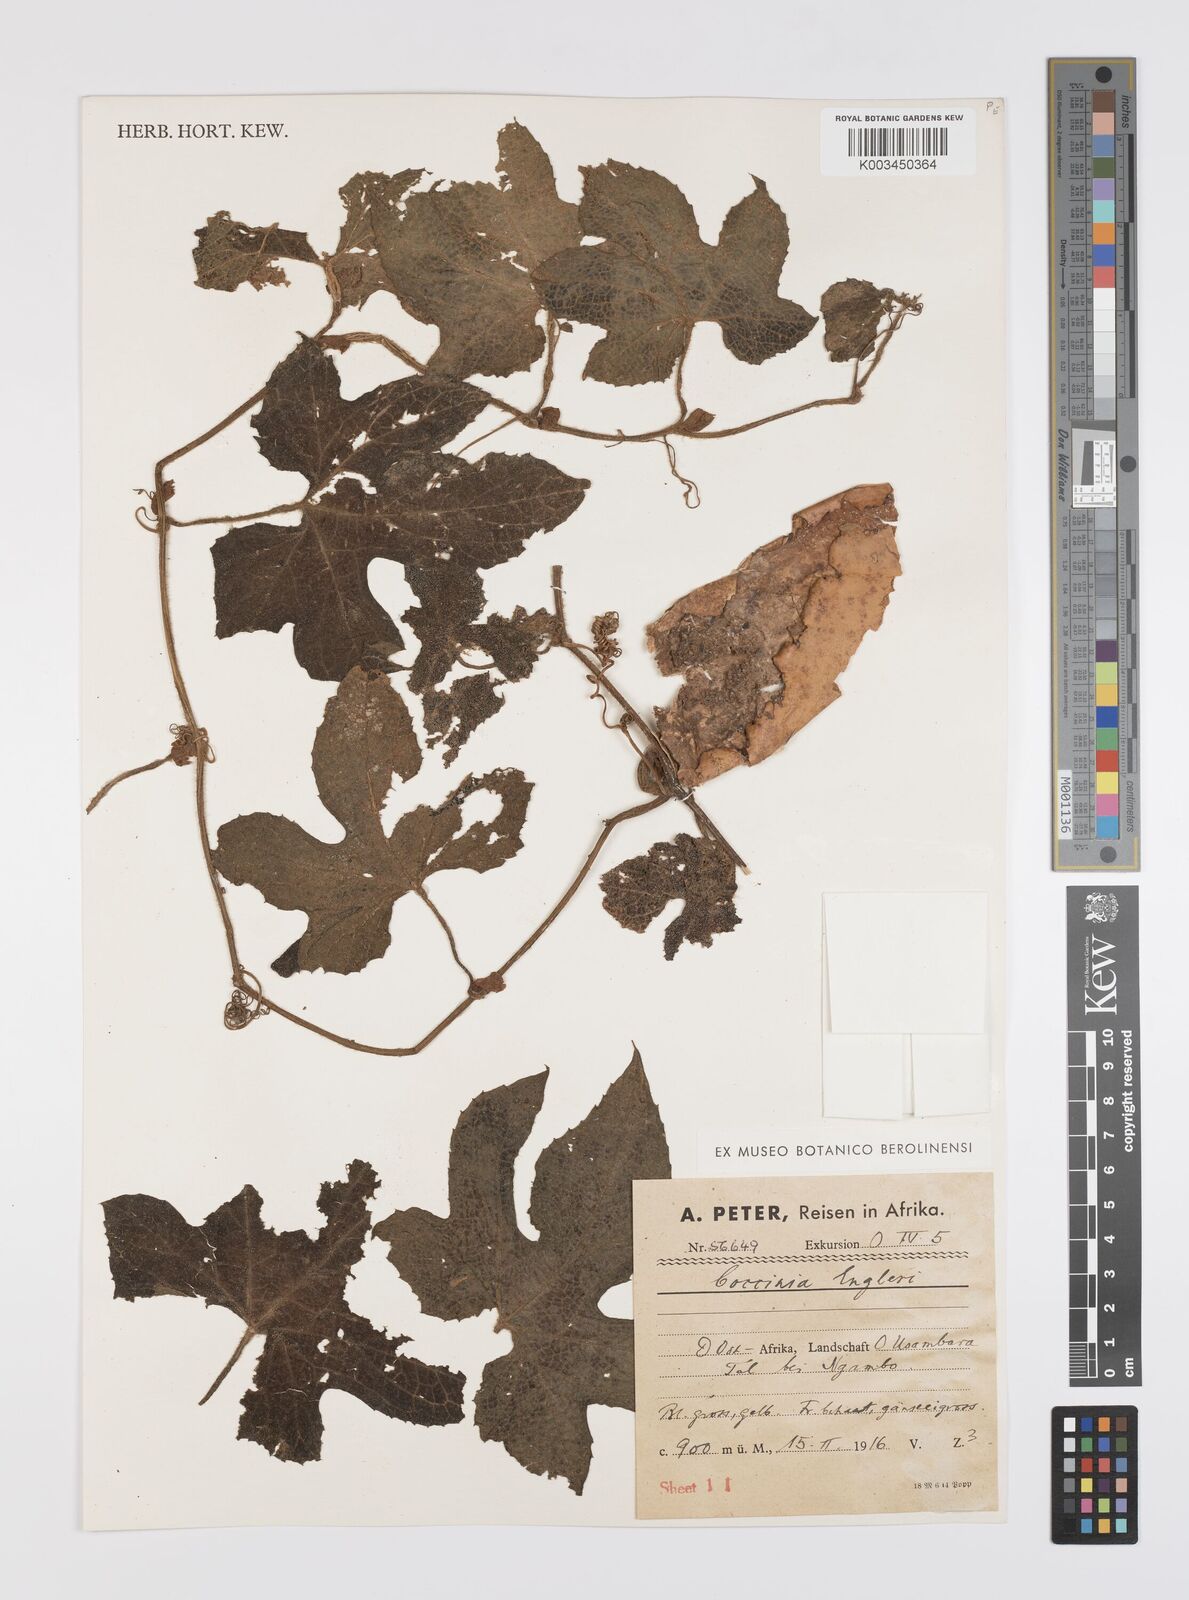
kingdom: Plantae
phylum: Tracheophyta
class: Magnoliopsida
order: Cucurbitales
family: Cucurbitaceae
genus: Peponium
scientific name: Peponium vogelii
